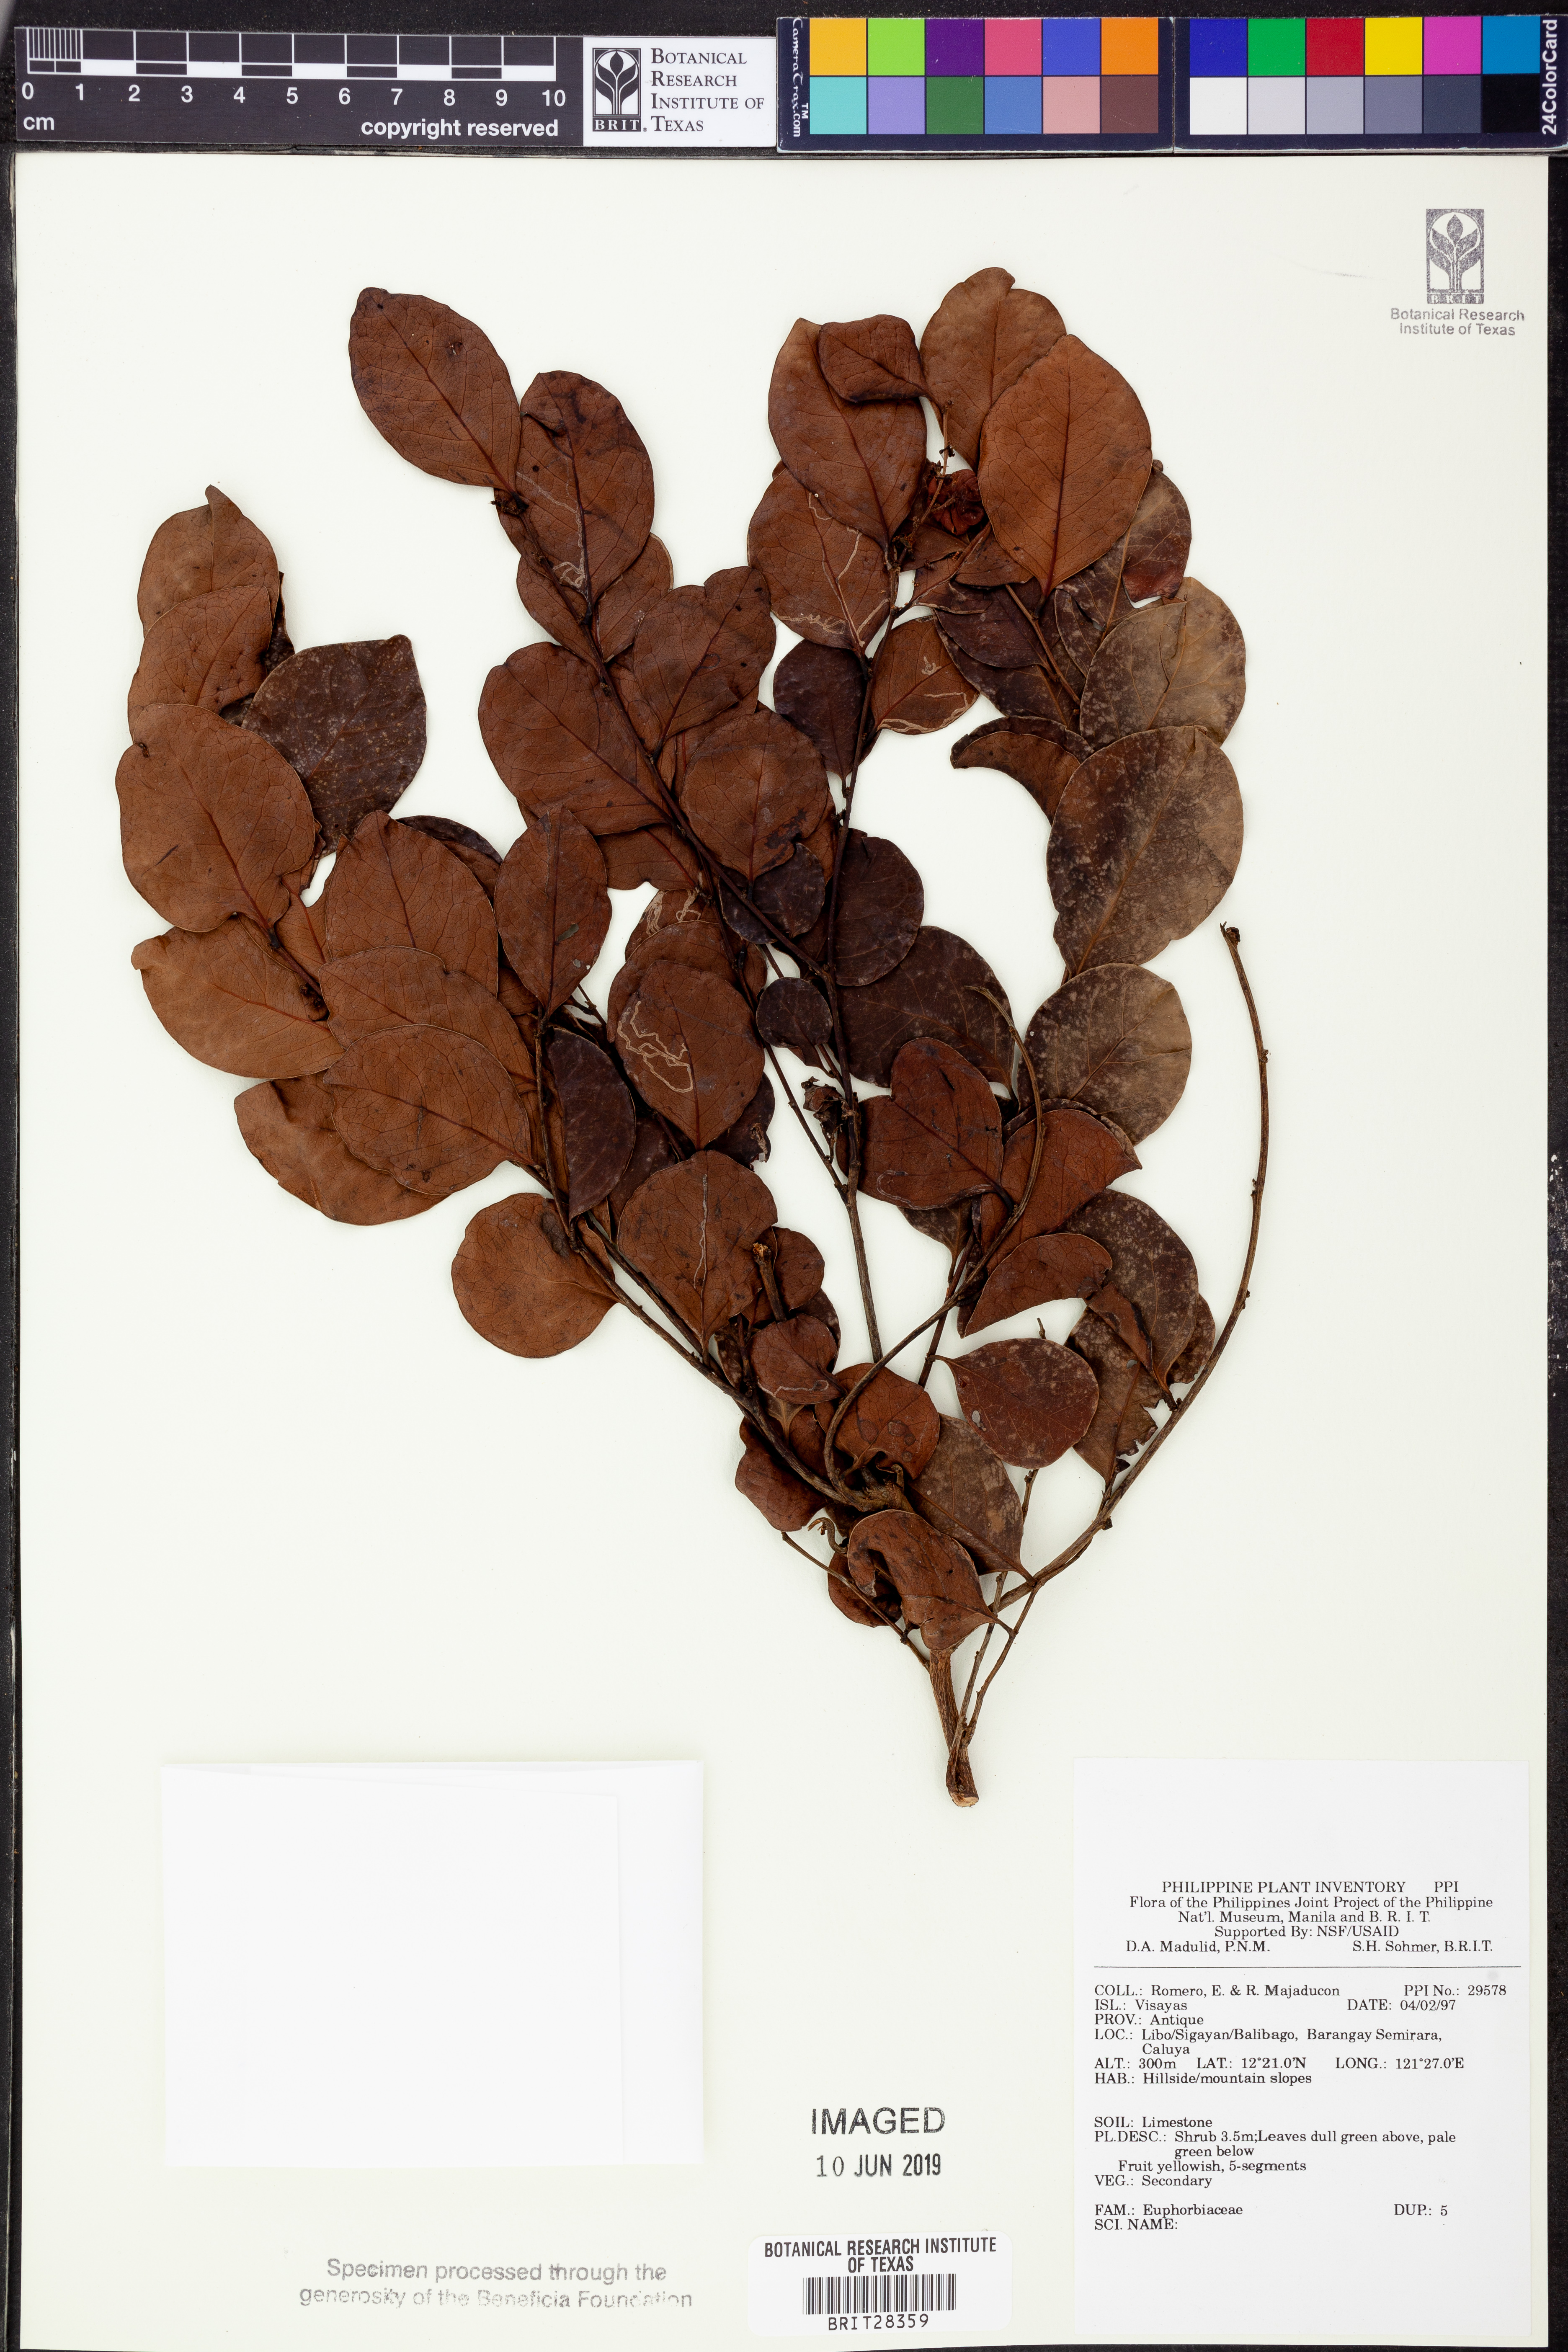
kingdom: Plantae
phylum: Tracheophyta
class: Magnoliopsida
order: Malpighiales
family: Euphorbiaceae
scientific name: Euphorbiaceae
